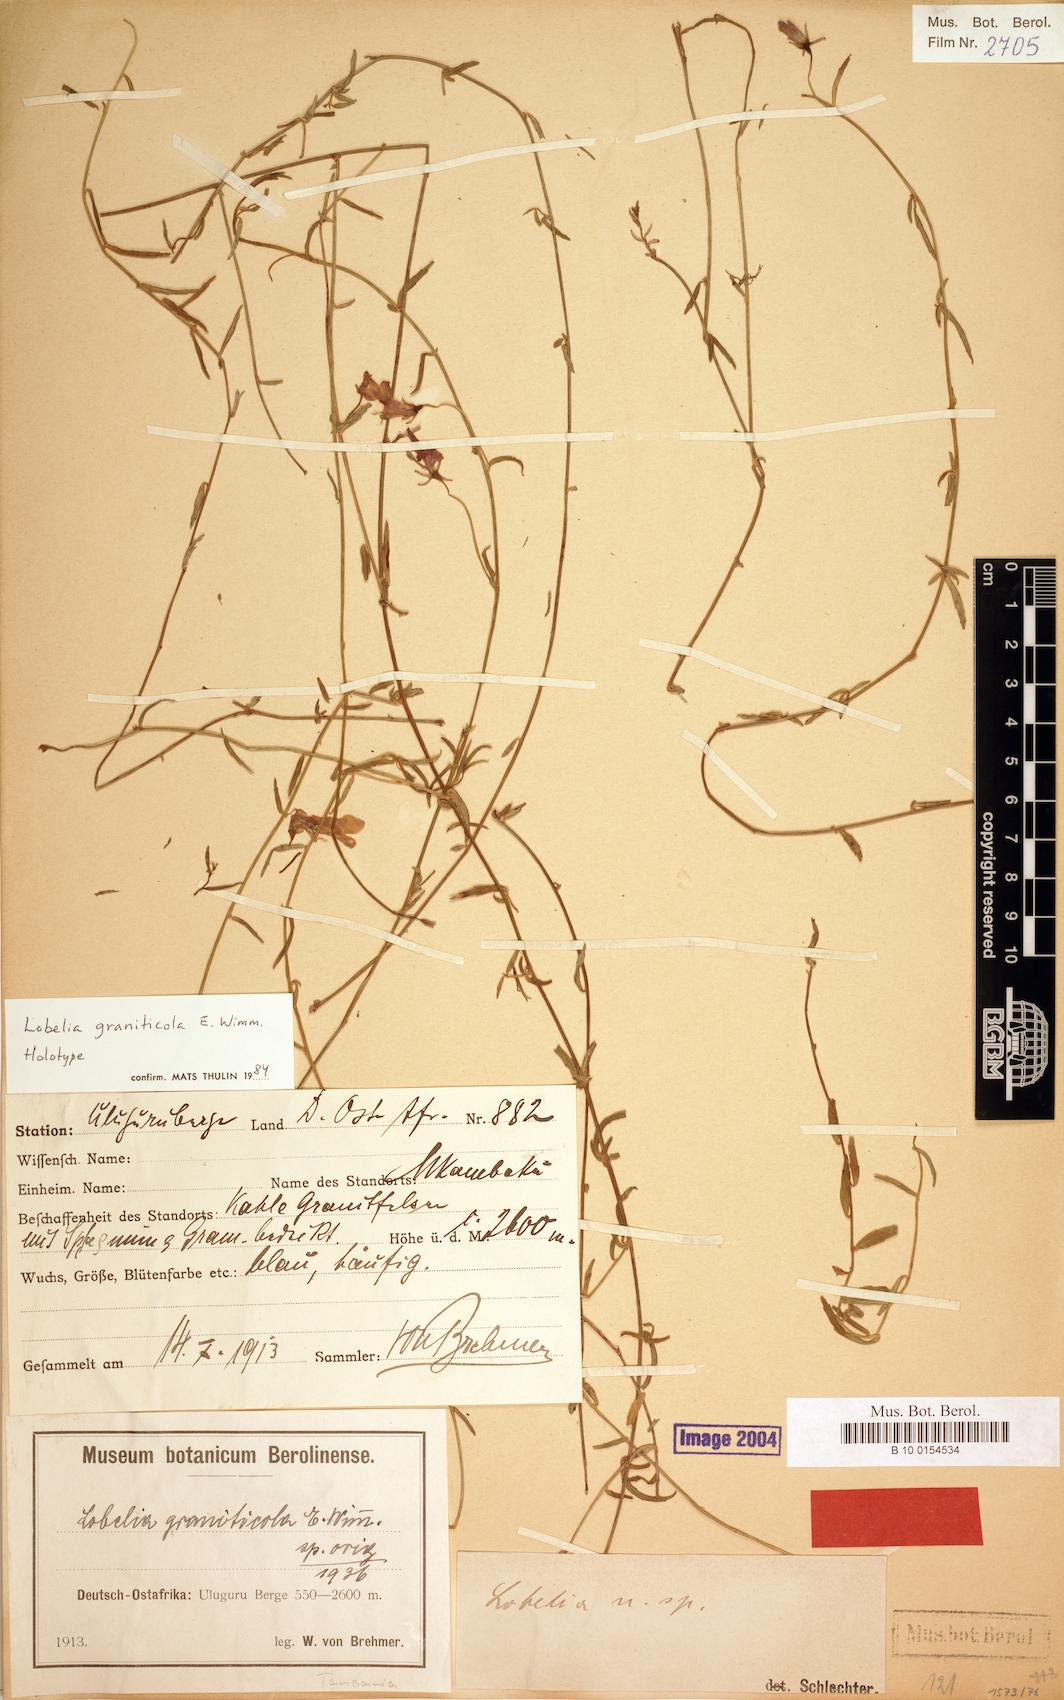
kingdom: Plantae
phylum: Tracheophyta
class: Magnoliopsida
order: Asterales
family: Campanulaceae
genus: Lobelia
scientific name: Lobelia graniticola
